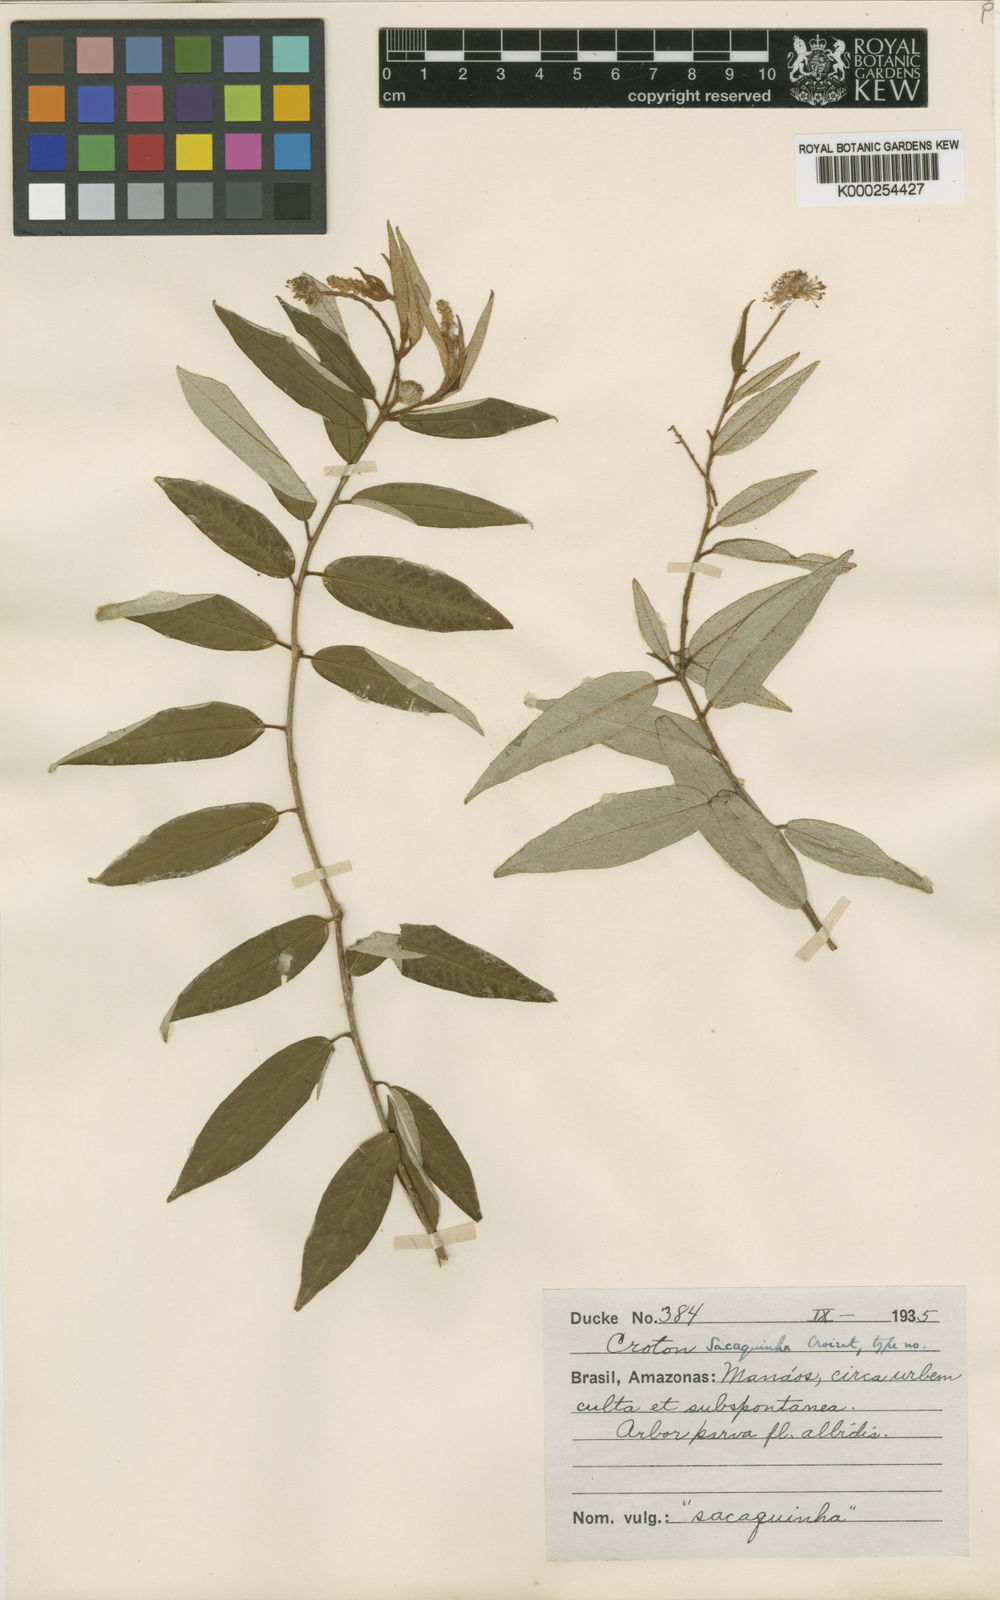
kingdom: Plantae
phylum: Tracheophyta
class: Magnoliopsida
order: Malpighiales
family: Euphorbiaceae
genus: Croton
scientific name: Croton sacaquinha
